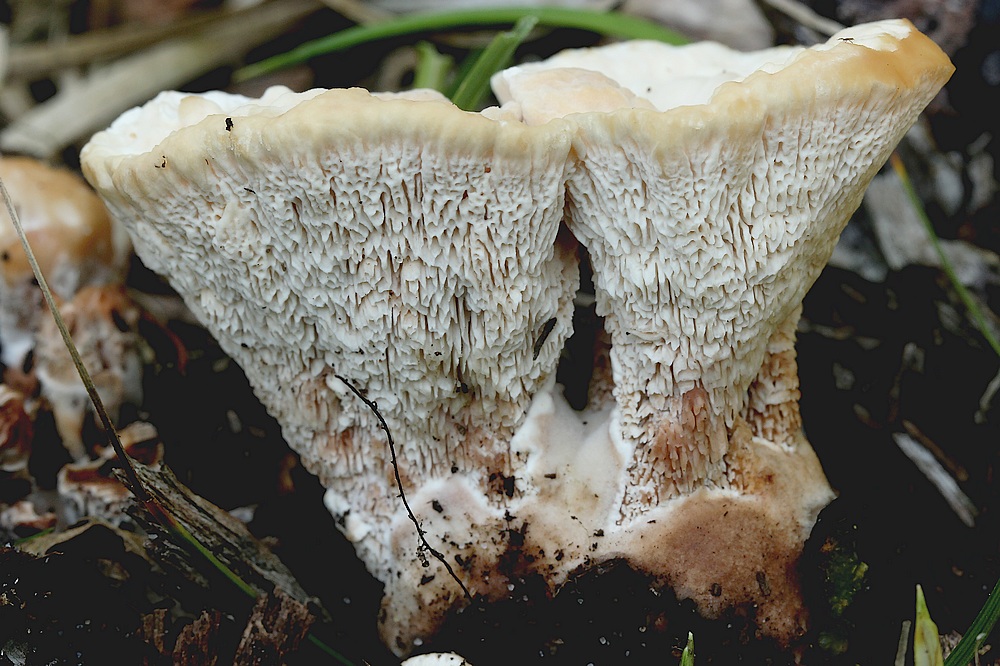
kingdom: Fungi
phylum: Basidiomycota
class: Agaricomycetes
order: Polyporales
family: Podoscyphaceae
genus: Abortiporus
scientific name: Abortiporus biennis
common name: rødmende pjalteporesvamp
